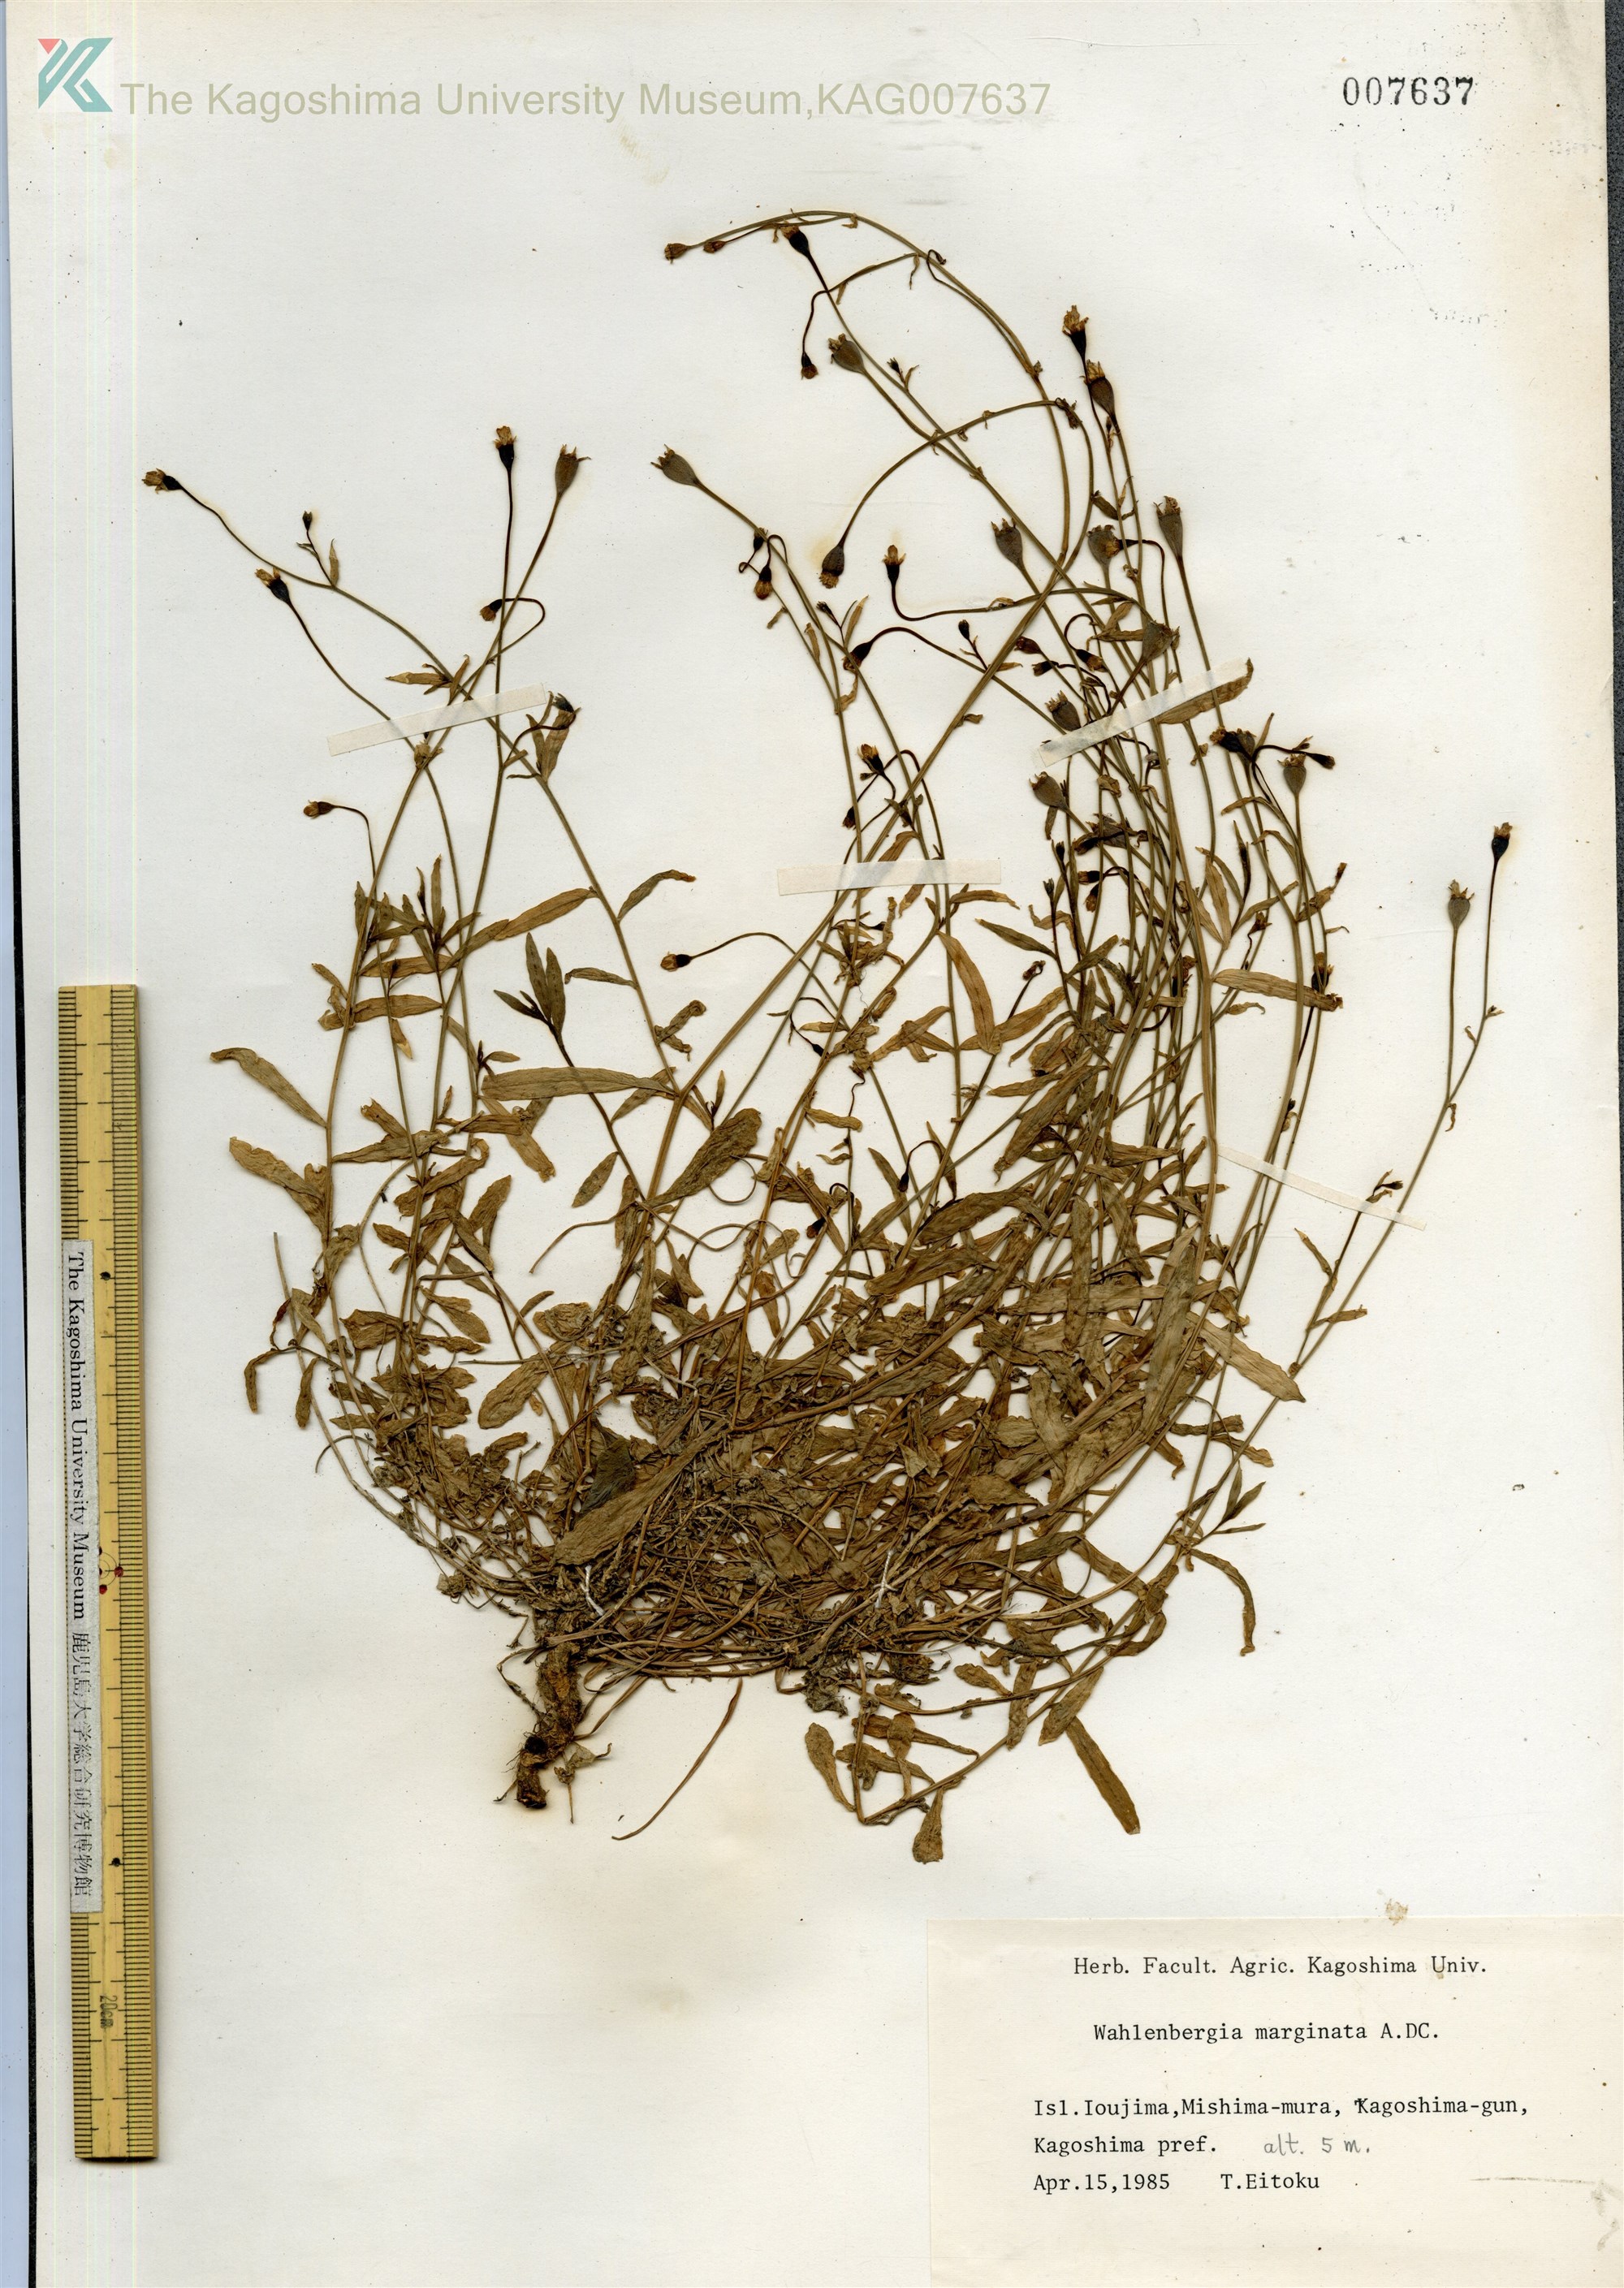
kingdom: Plantae
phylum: Tracheophyta
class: Magnoliopsida
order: Asterales
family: Campanulaceae
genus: Wahlenbergia
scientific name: Wahlenbergia marginata
